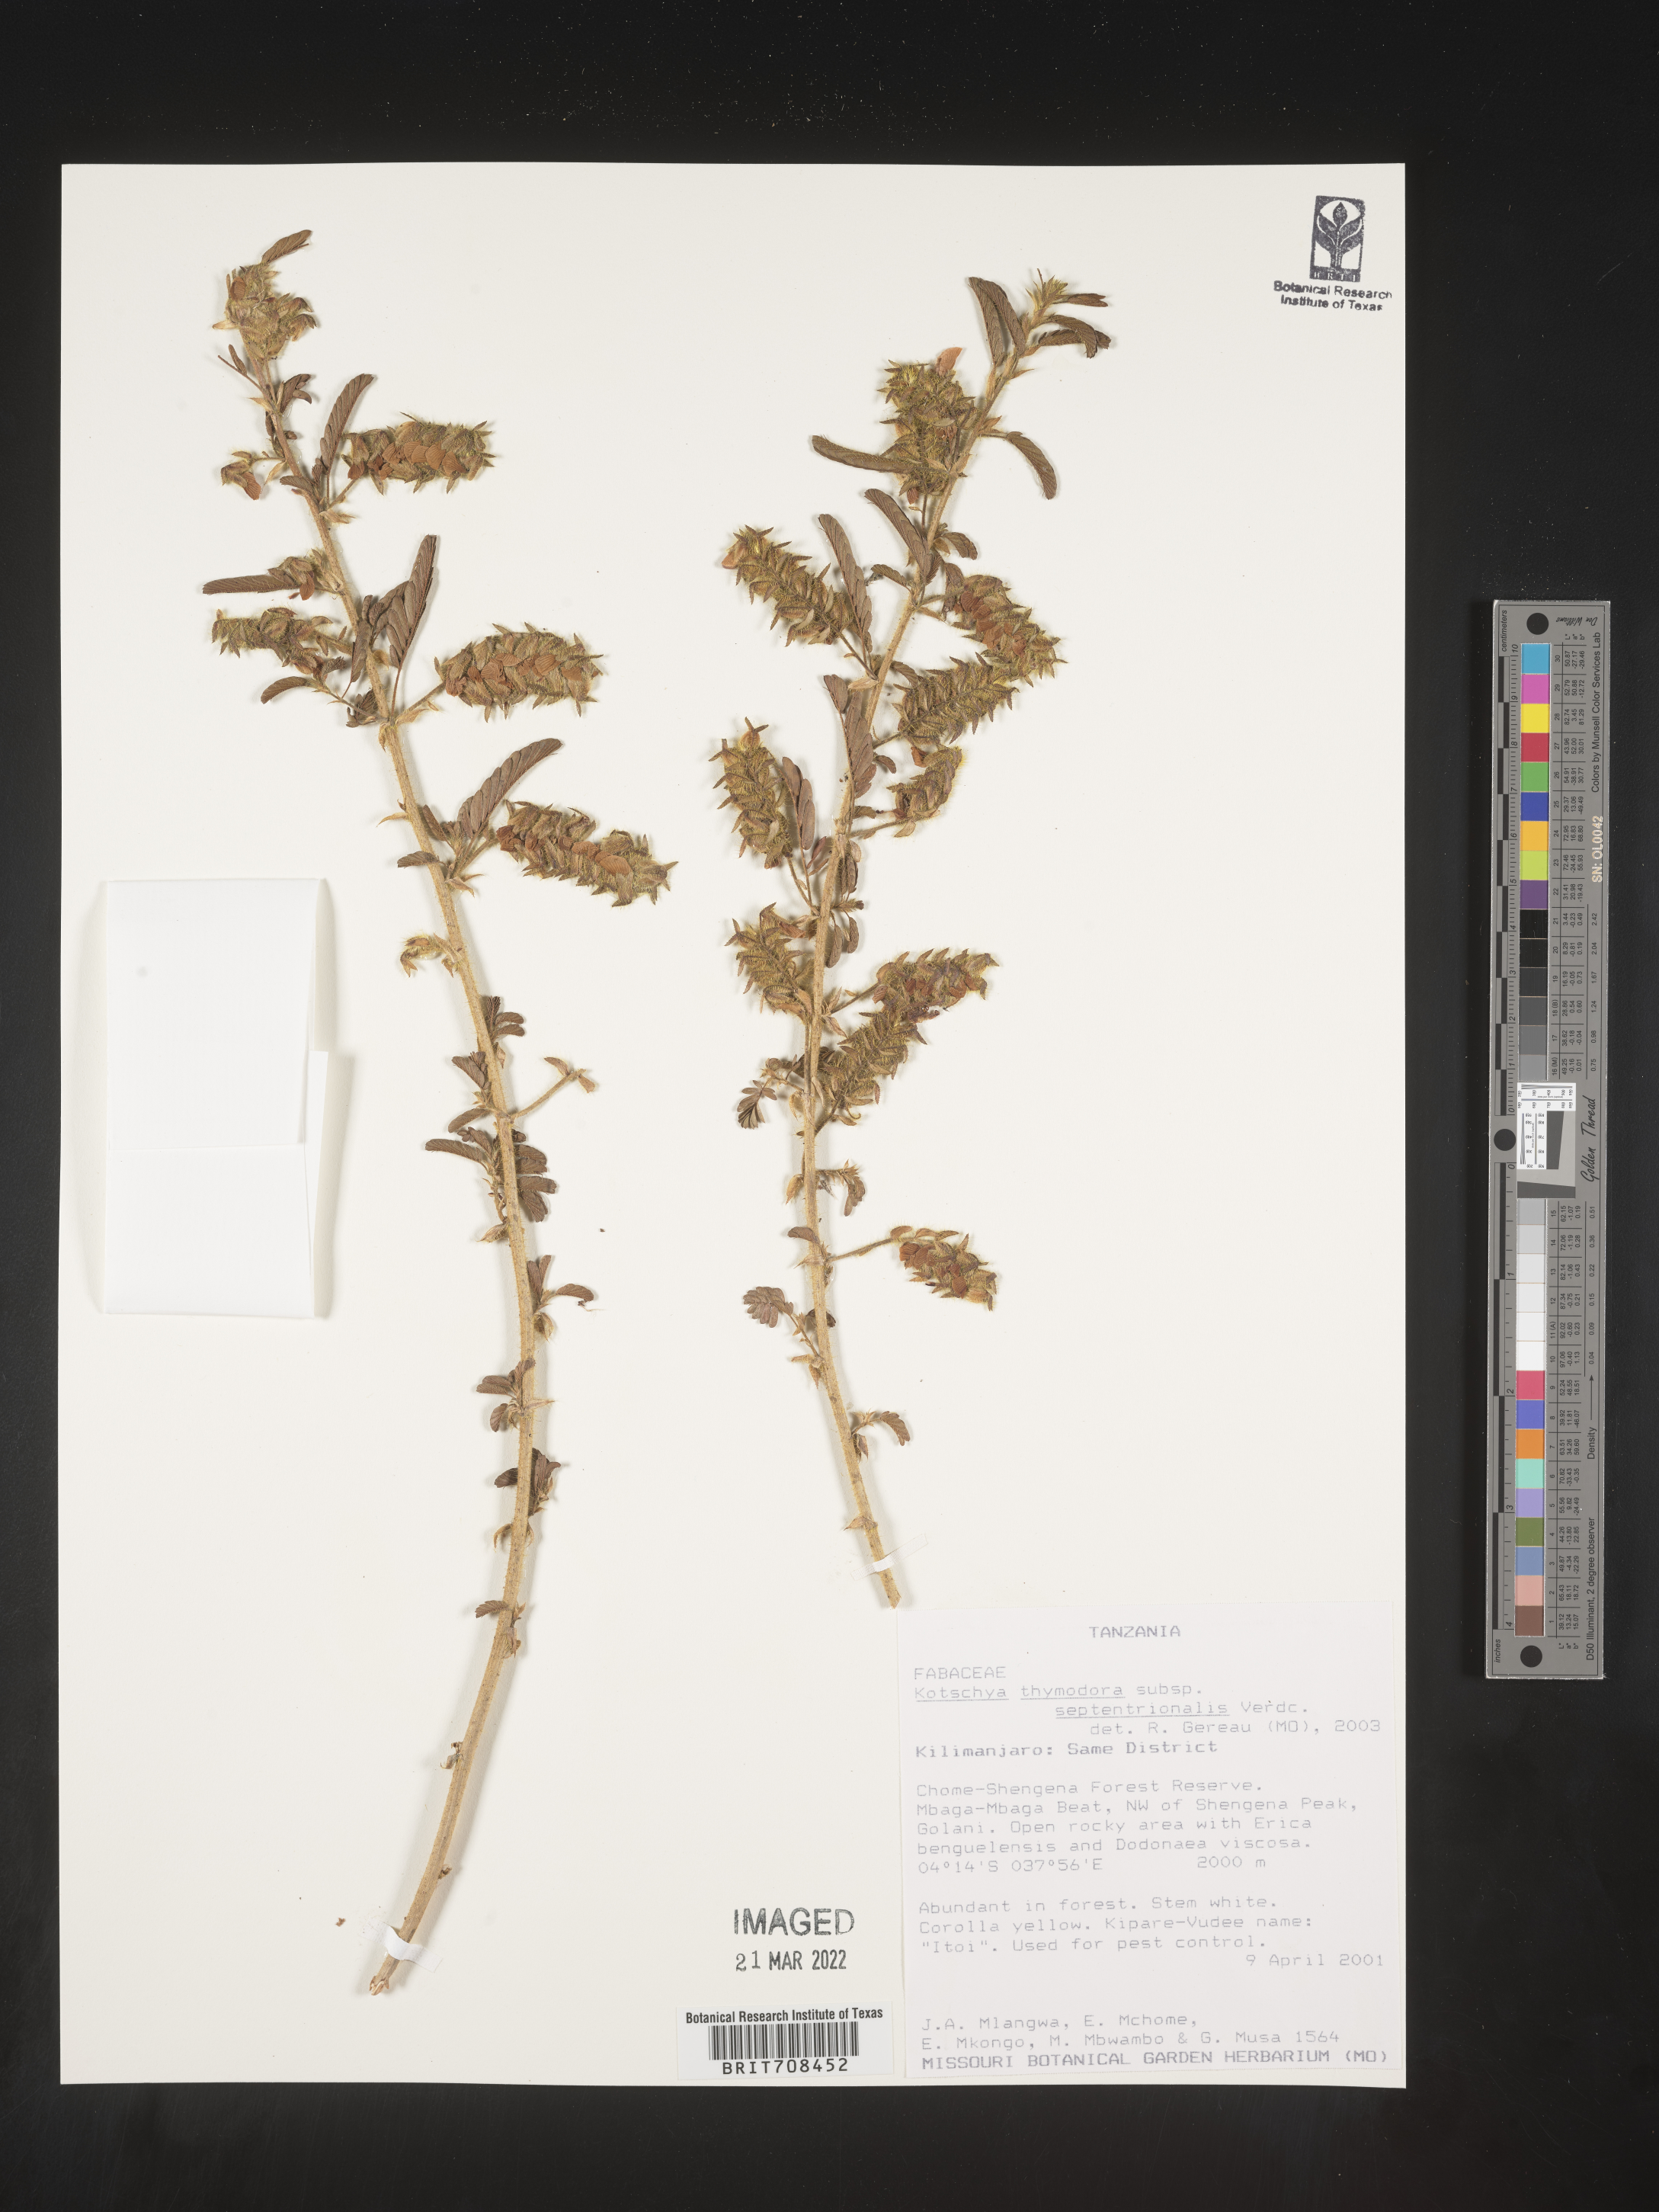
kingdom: Plantae
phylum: Tracheophyta
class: Magnoliopsida
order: Fabales
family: Fabaceae
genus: Kotschya
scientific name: Kotschya
